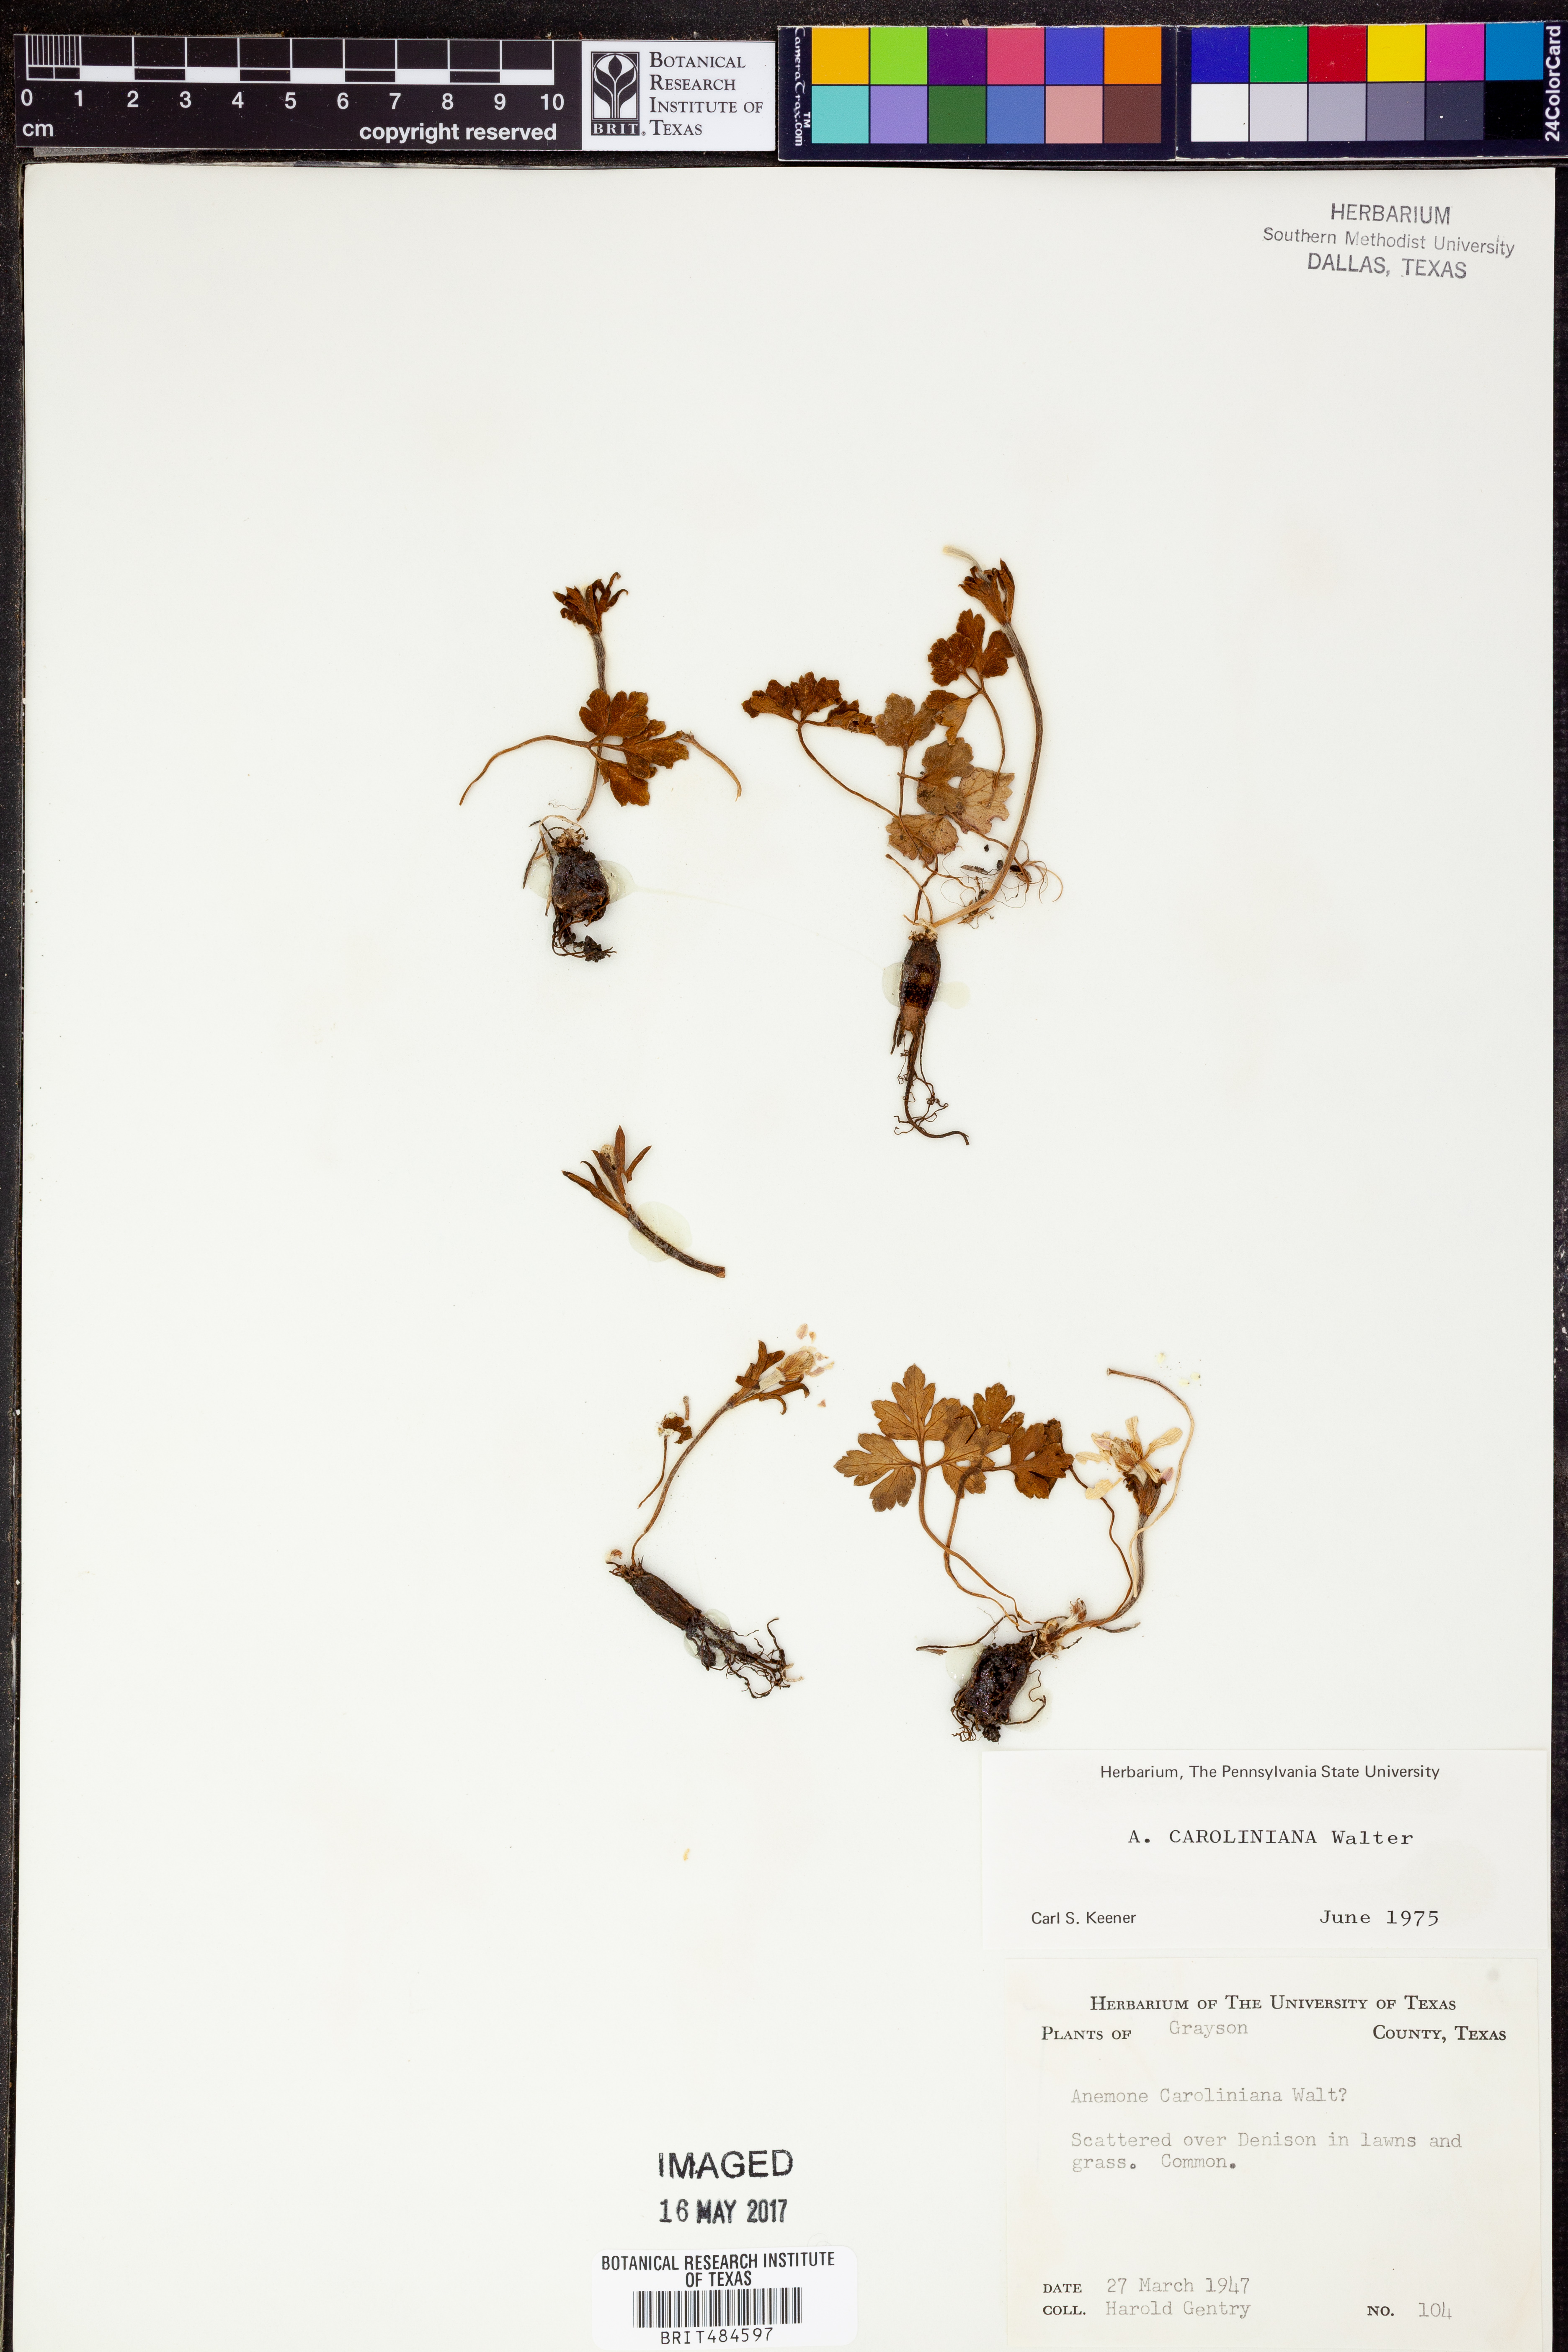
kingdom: Plantae
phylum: Tracheophyta
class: Magnoliopsida
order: Ranunculales
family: Ranunculaceae
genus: Anemone
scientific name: Anemone caroliniana
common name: Carolina anemone
